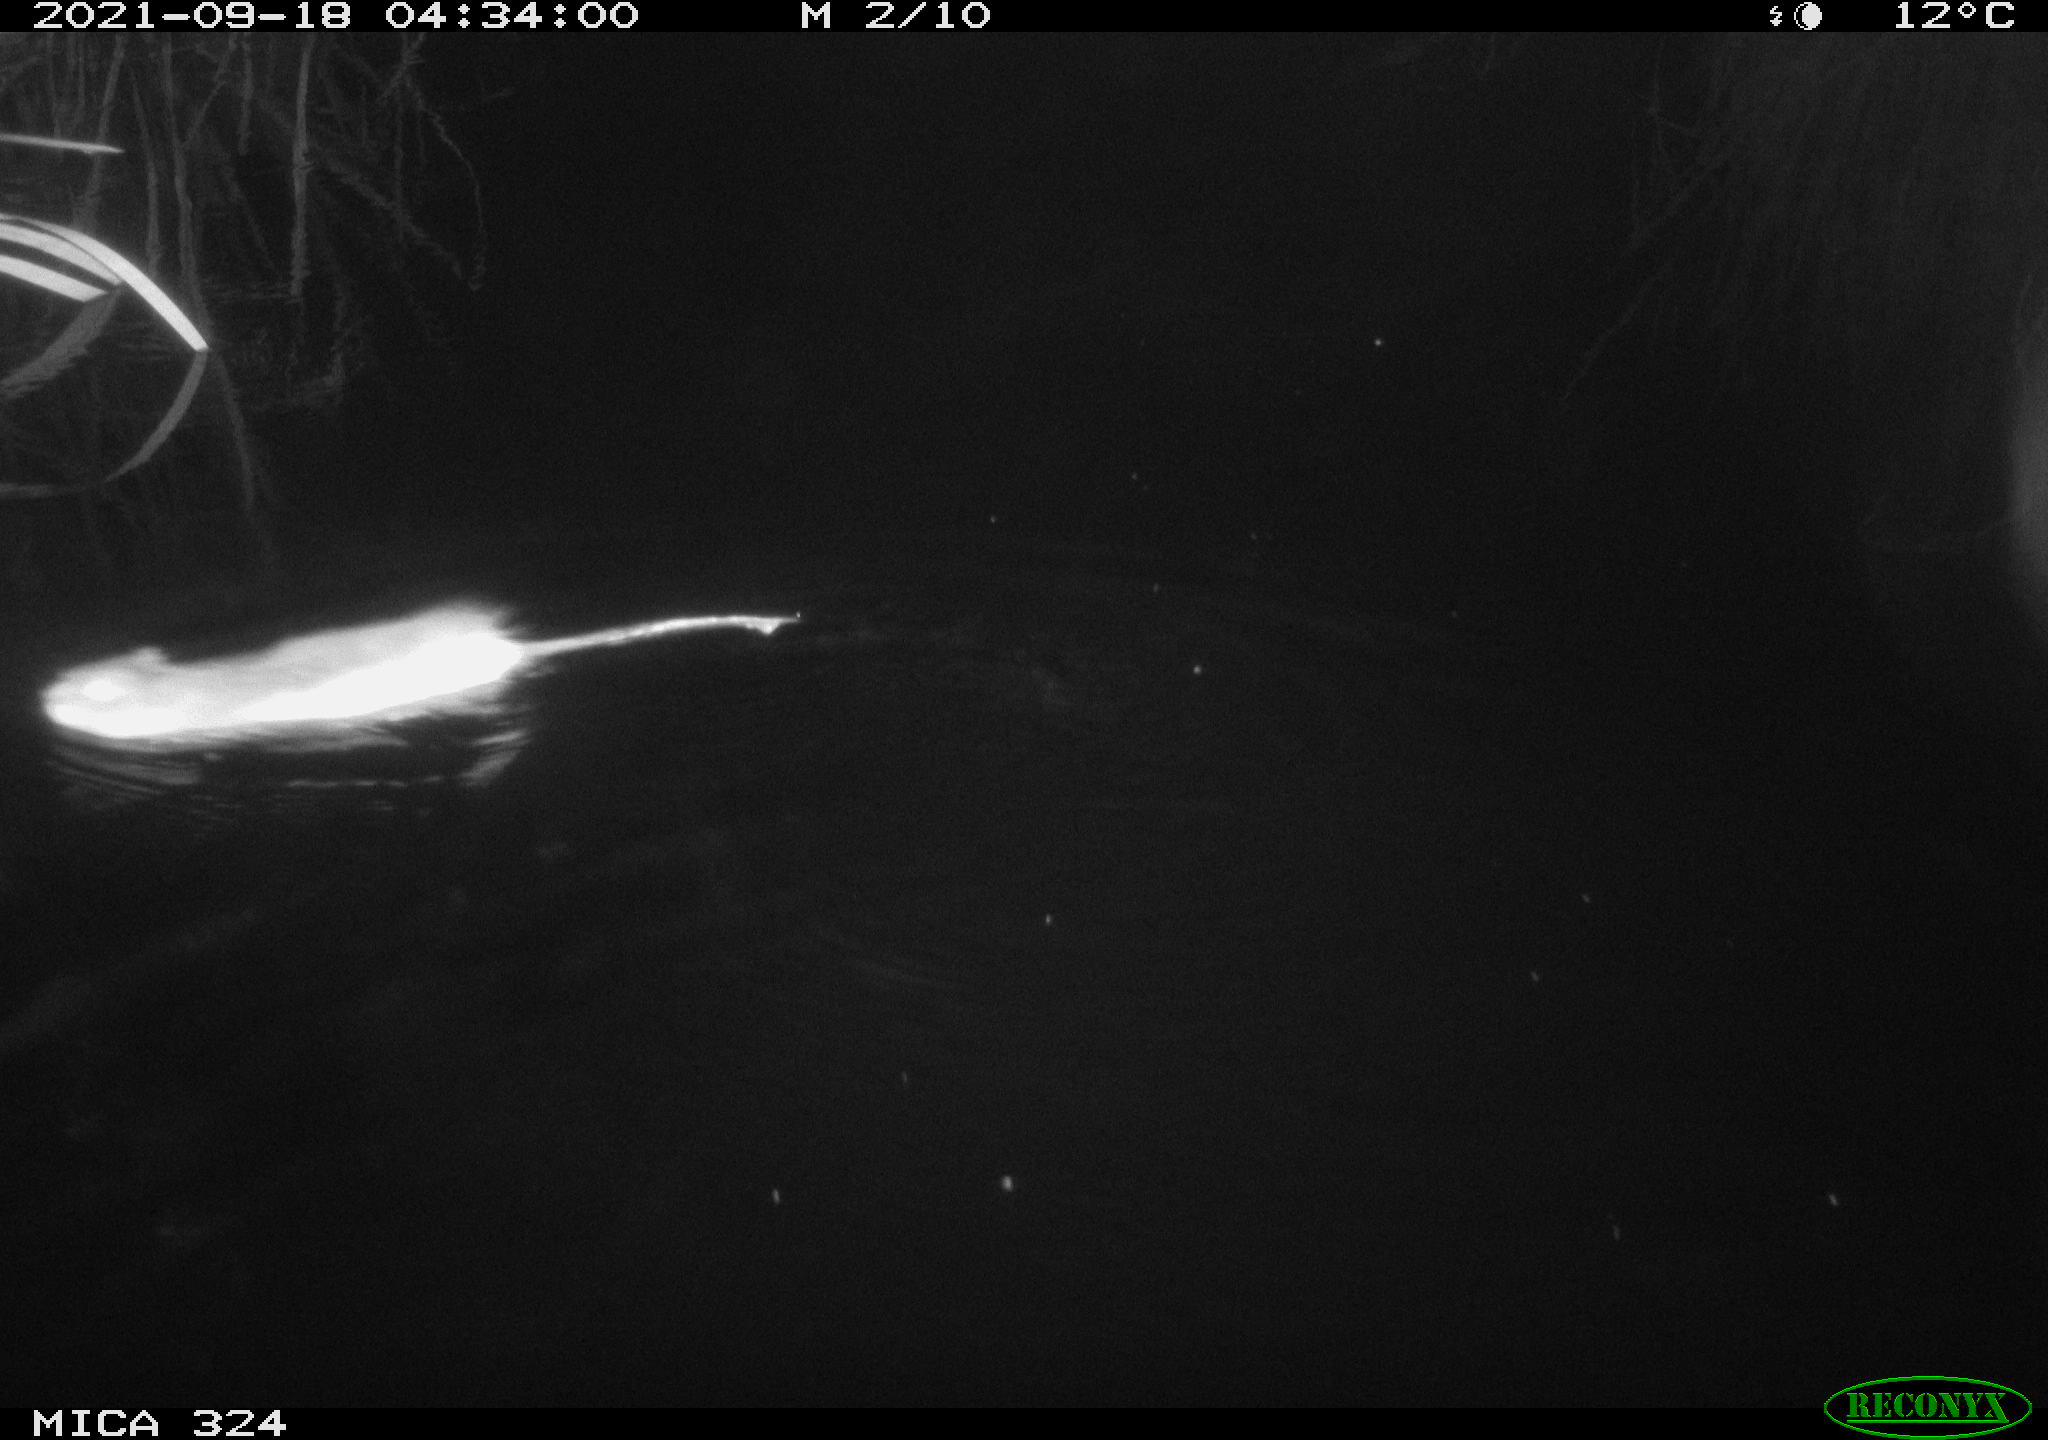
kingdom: Animalia
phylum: Chordata
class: Mammalia
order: Rodentia
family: Cricetidae
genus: Ondatra
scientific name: Ondatra zibethicus
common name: Muskrat
